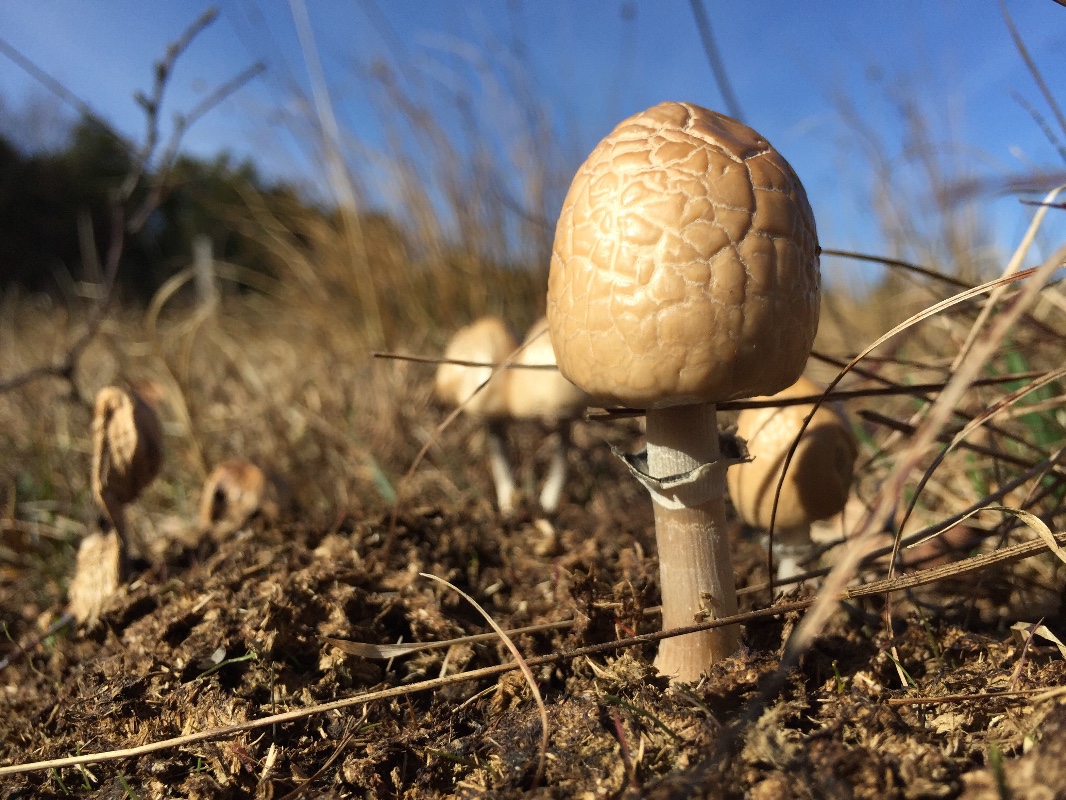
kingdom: Fungi
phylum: Basidiomycota
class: Agaricomycetes
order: Agaricales
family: Bolbitiaceae
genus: Panaeolus
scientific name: Panaeolus semiovatus
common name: ring-glanshat
